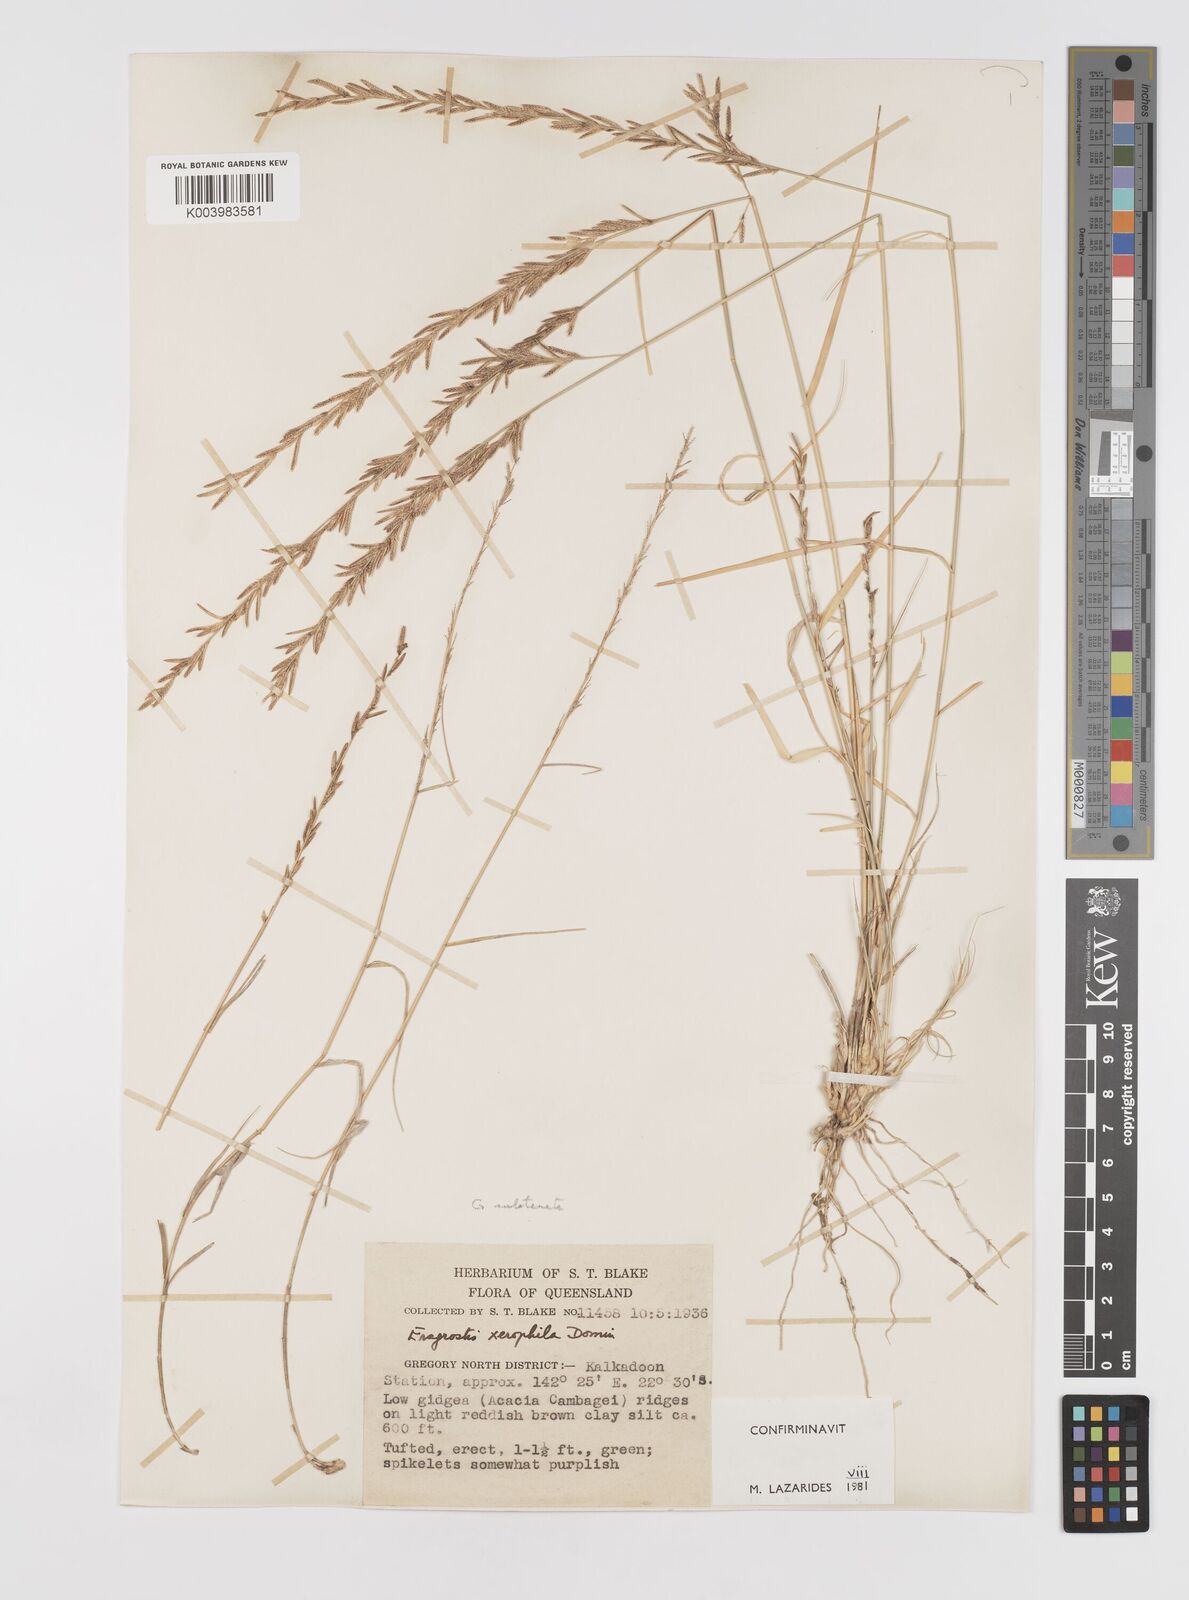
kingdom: Plantae
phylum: Tracheophyta
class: Liliopsida
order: Poales
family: Poaceae
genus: Eragrostis
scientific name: Eragrostis xerophila
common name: Wire wandarrie grass
